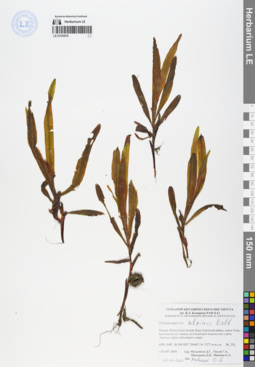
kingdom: Plantae
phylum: Tracheophyta
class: Liliopsida
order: Alismatales
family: Potamogetonaceae
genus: Potamogeton
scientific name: Potamogeton alpinus
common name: Red pondweed
